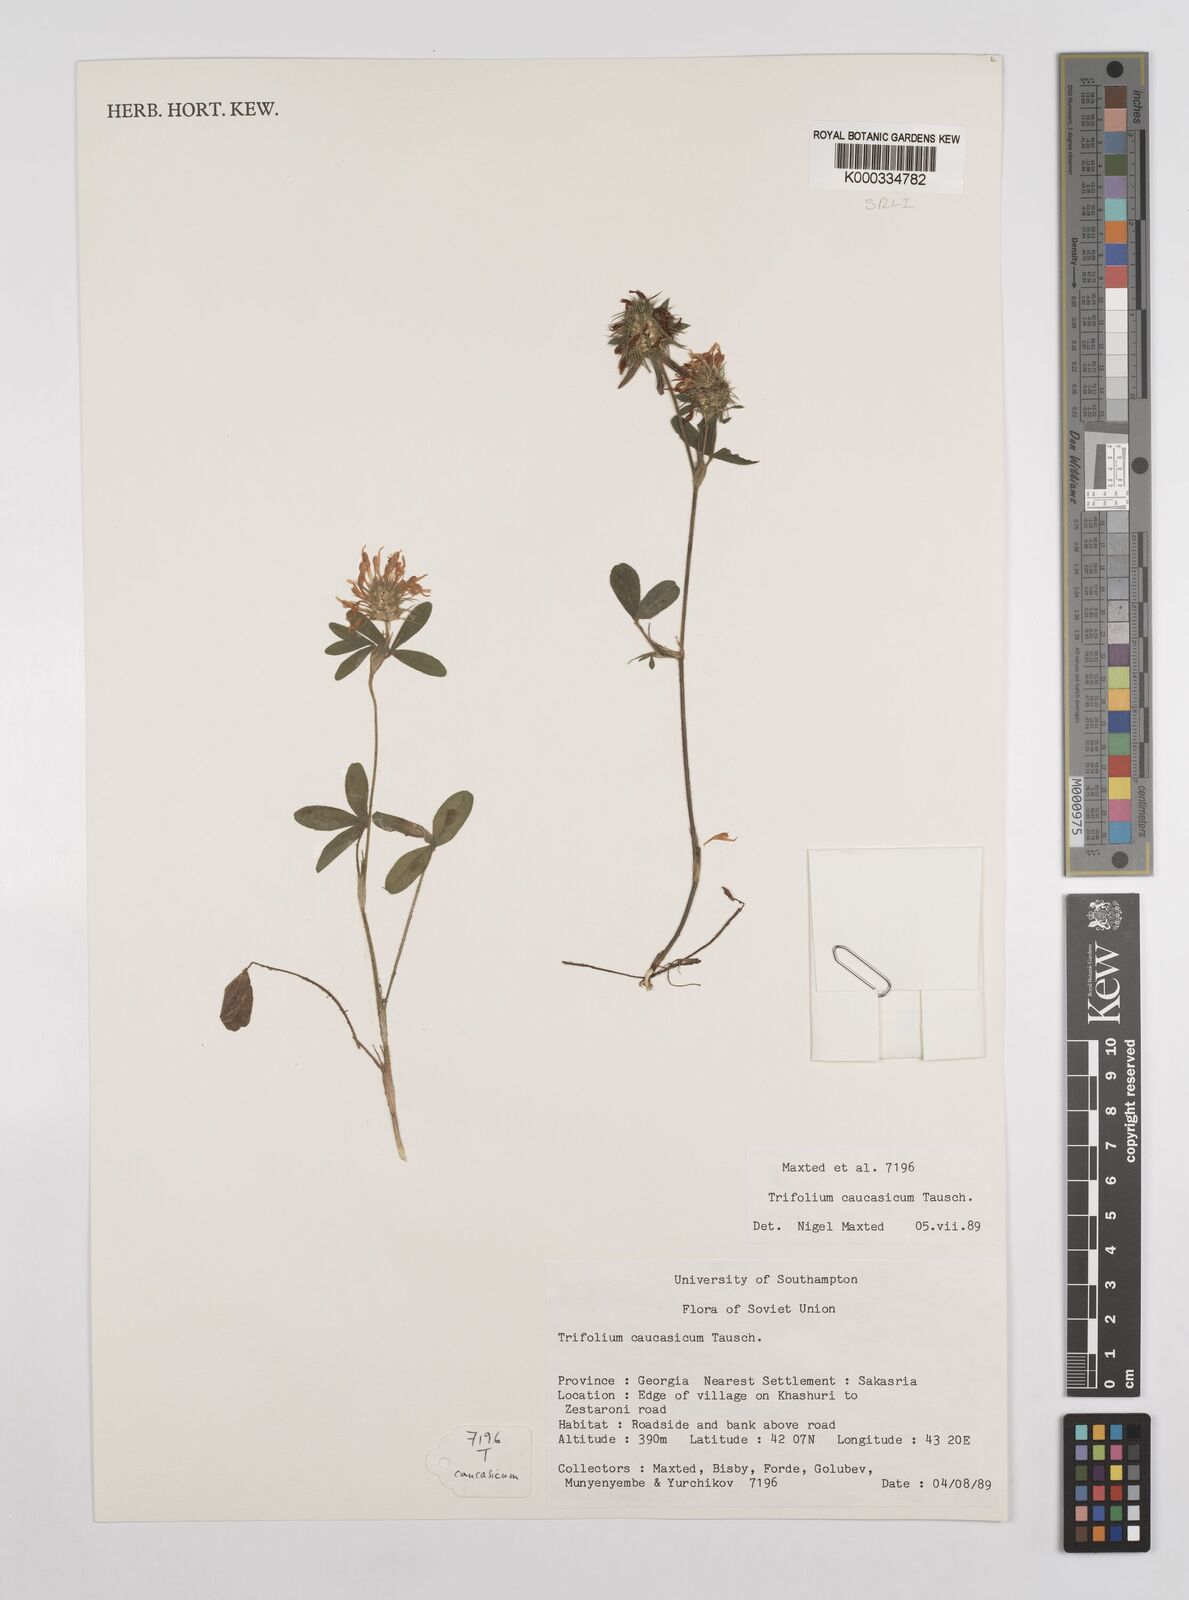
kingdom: Plantae
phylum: Tracheophyta
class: Magnoliopsida
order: Fabales
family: Fabaceae
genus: Trifolium
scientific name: Trifolium ochroleucon
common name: Sulphur clover
